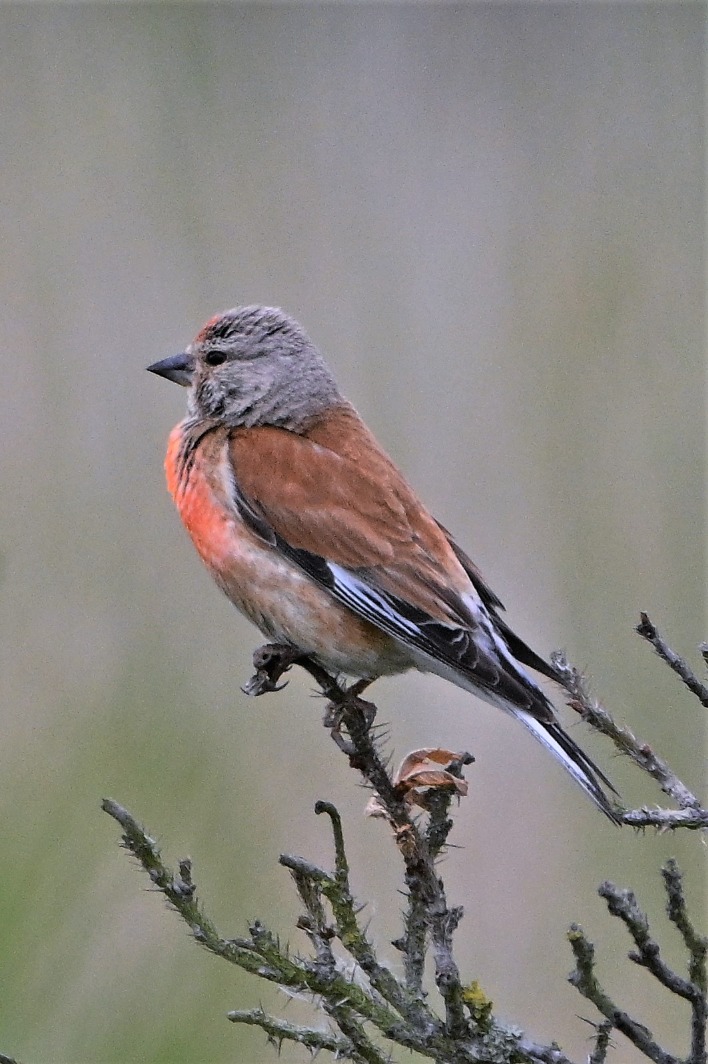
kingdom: Animalia
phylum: Chordata
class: Aves
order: Passeriformes
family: Fringillidae
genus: Linaria
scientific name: Linaria cannabina
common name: Tornirisk
